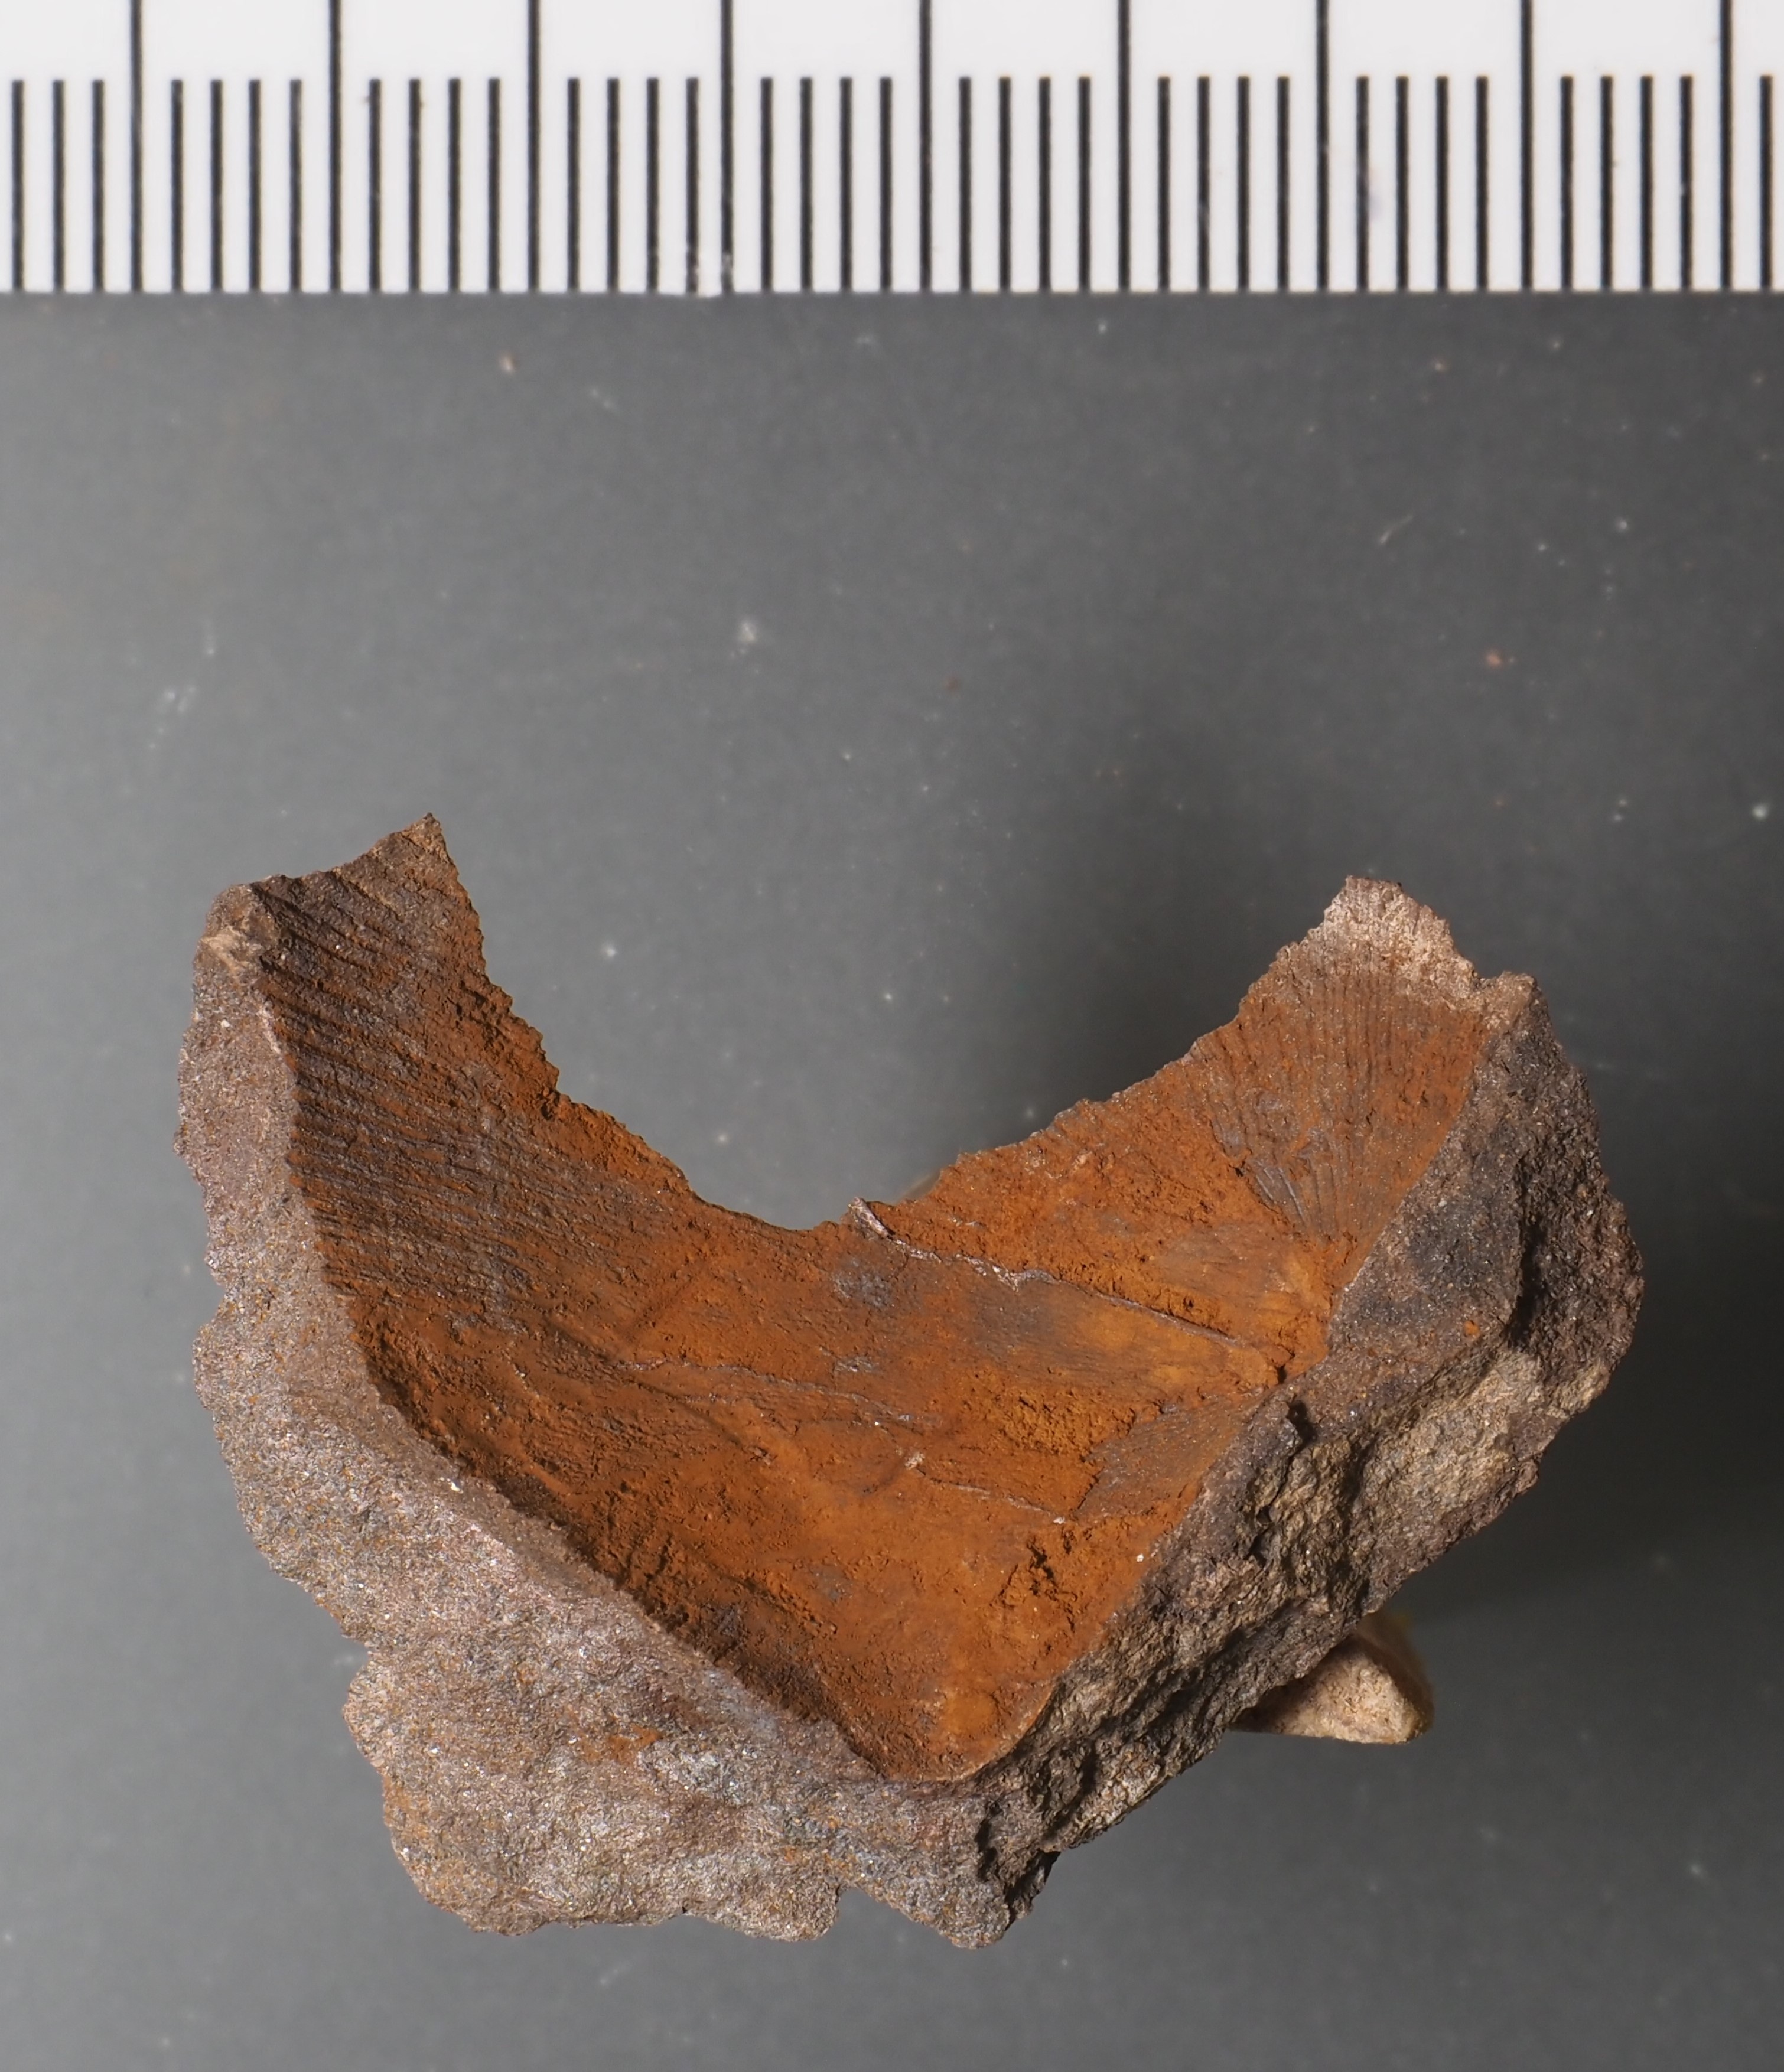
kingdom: Animalia
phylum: Brachiopoda
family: Strophomenidae
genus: Gibbodouvillina
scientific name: Gibbodouvillina
